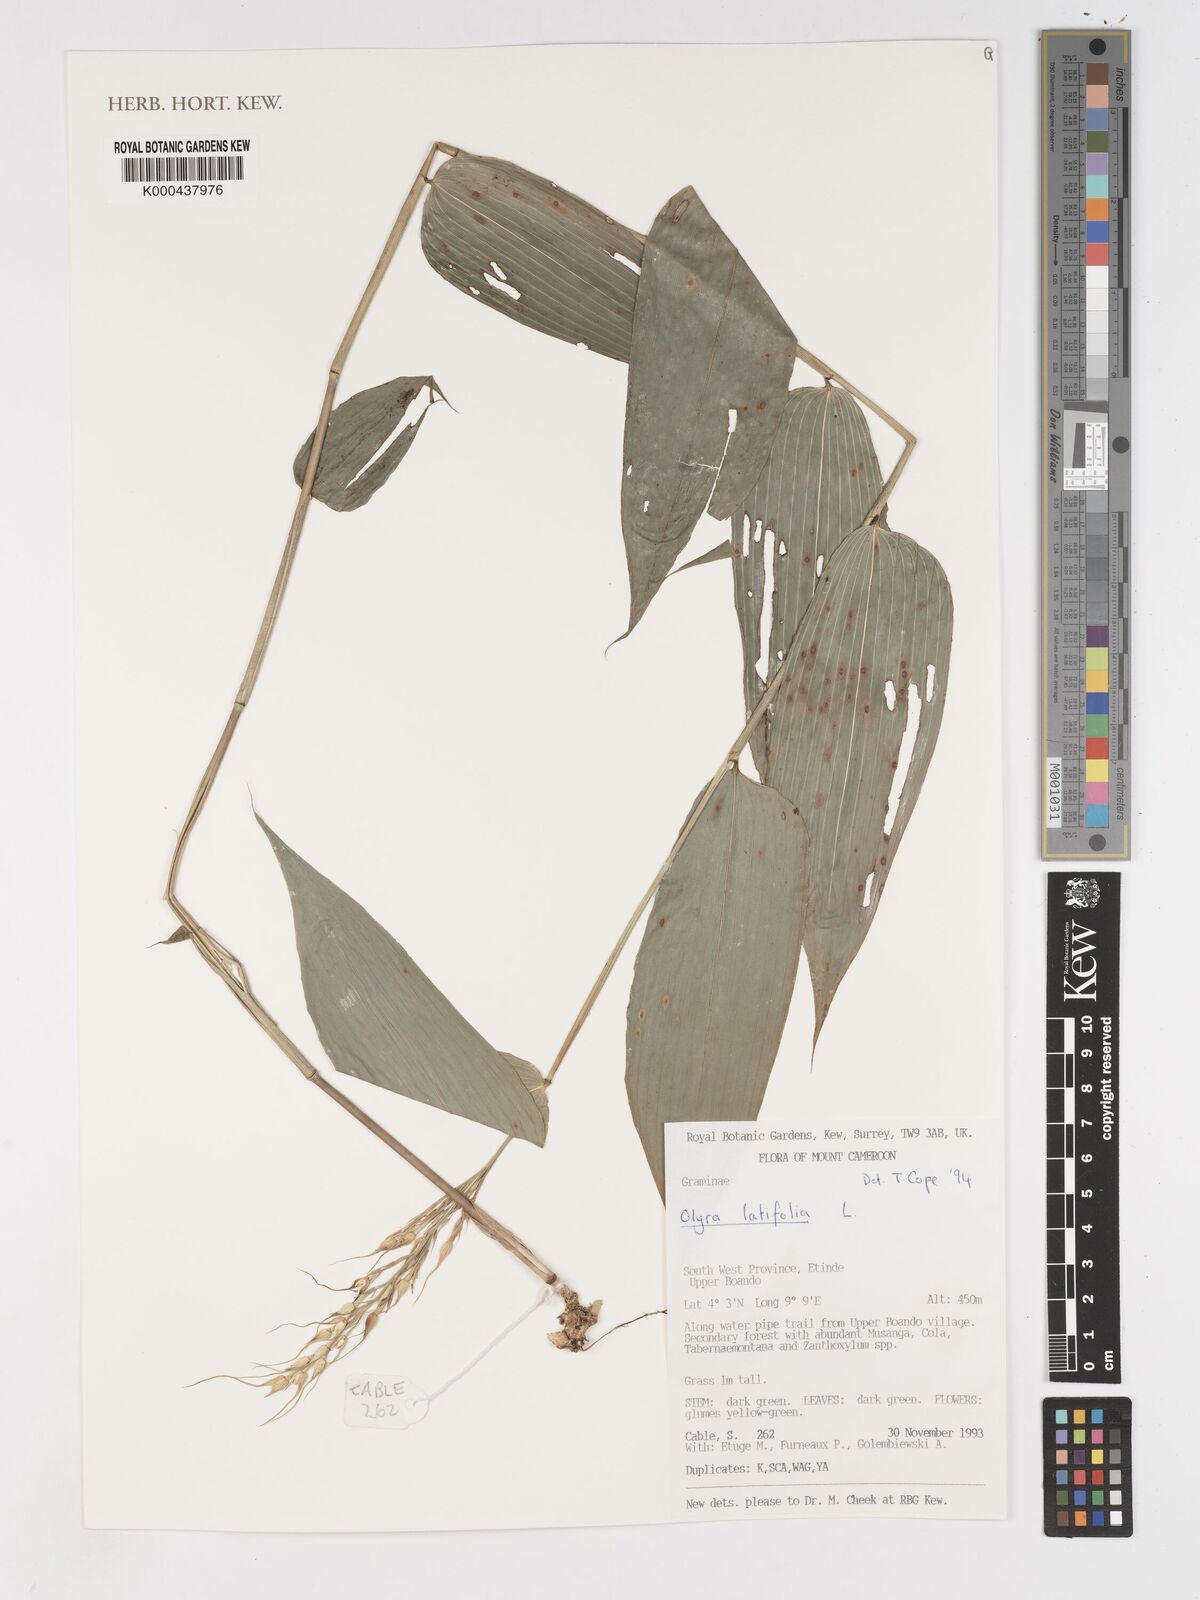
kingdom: Plantae
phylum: Tracheophyta
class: Liliopsida
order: Poales
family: Poaceae
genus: Olyra
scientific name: Olyra latifolia
